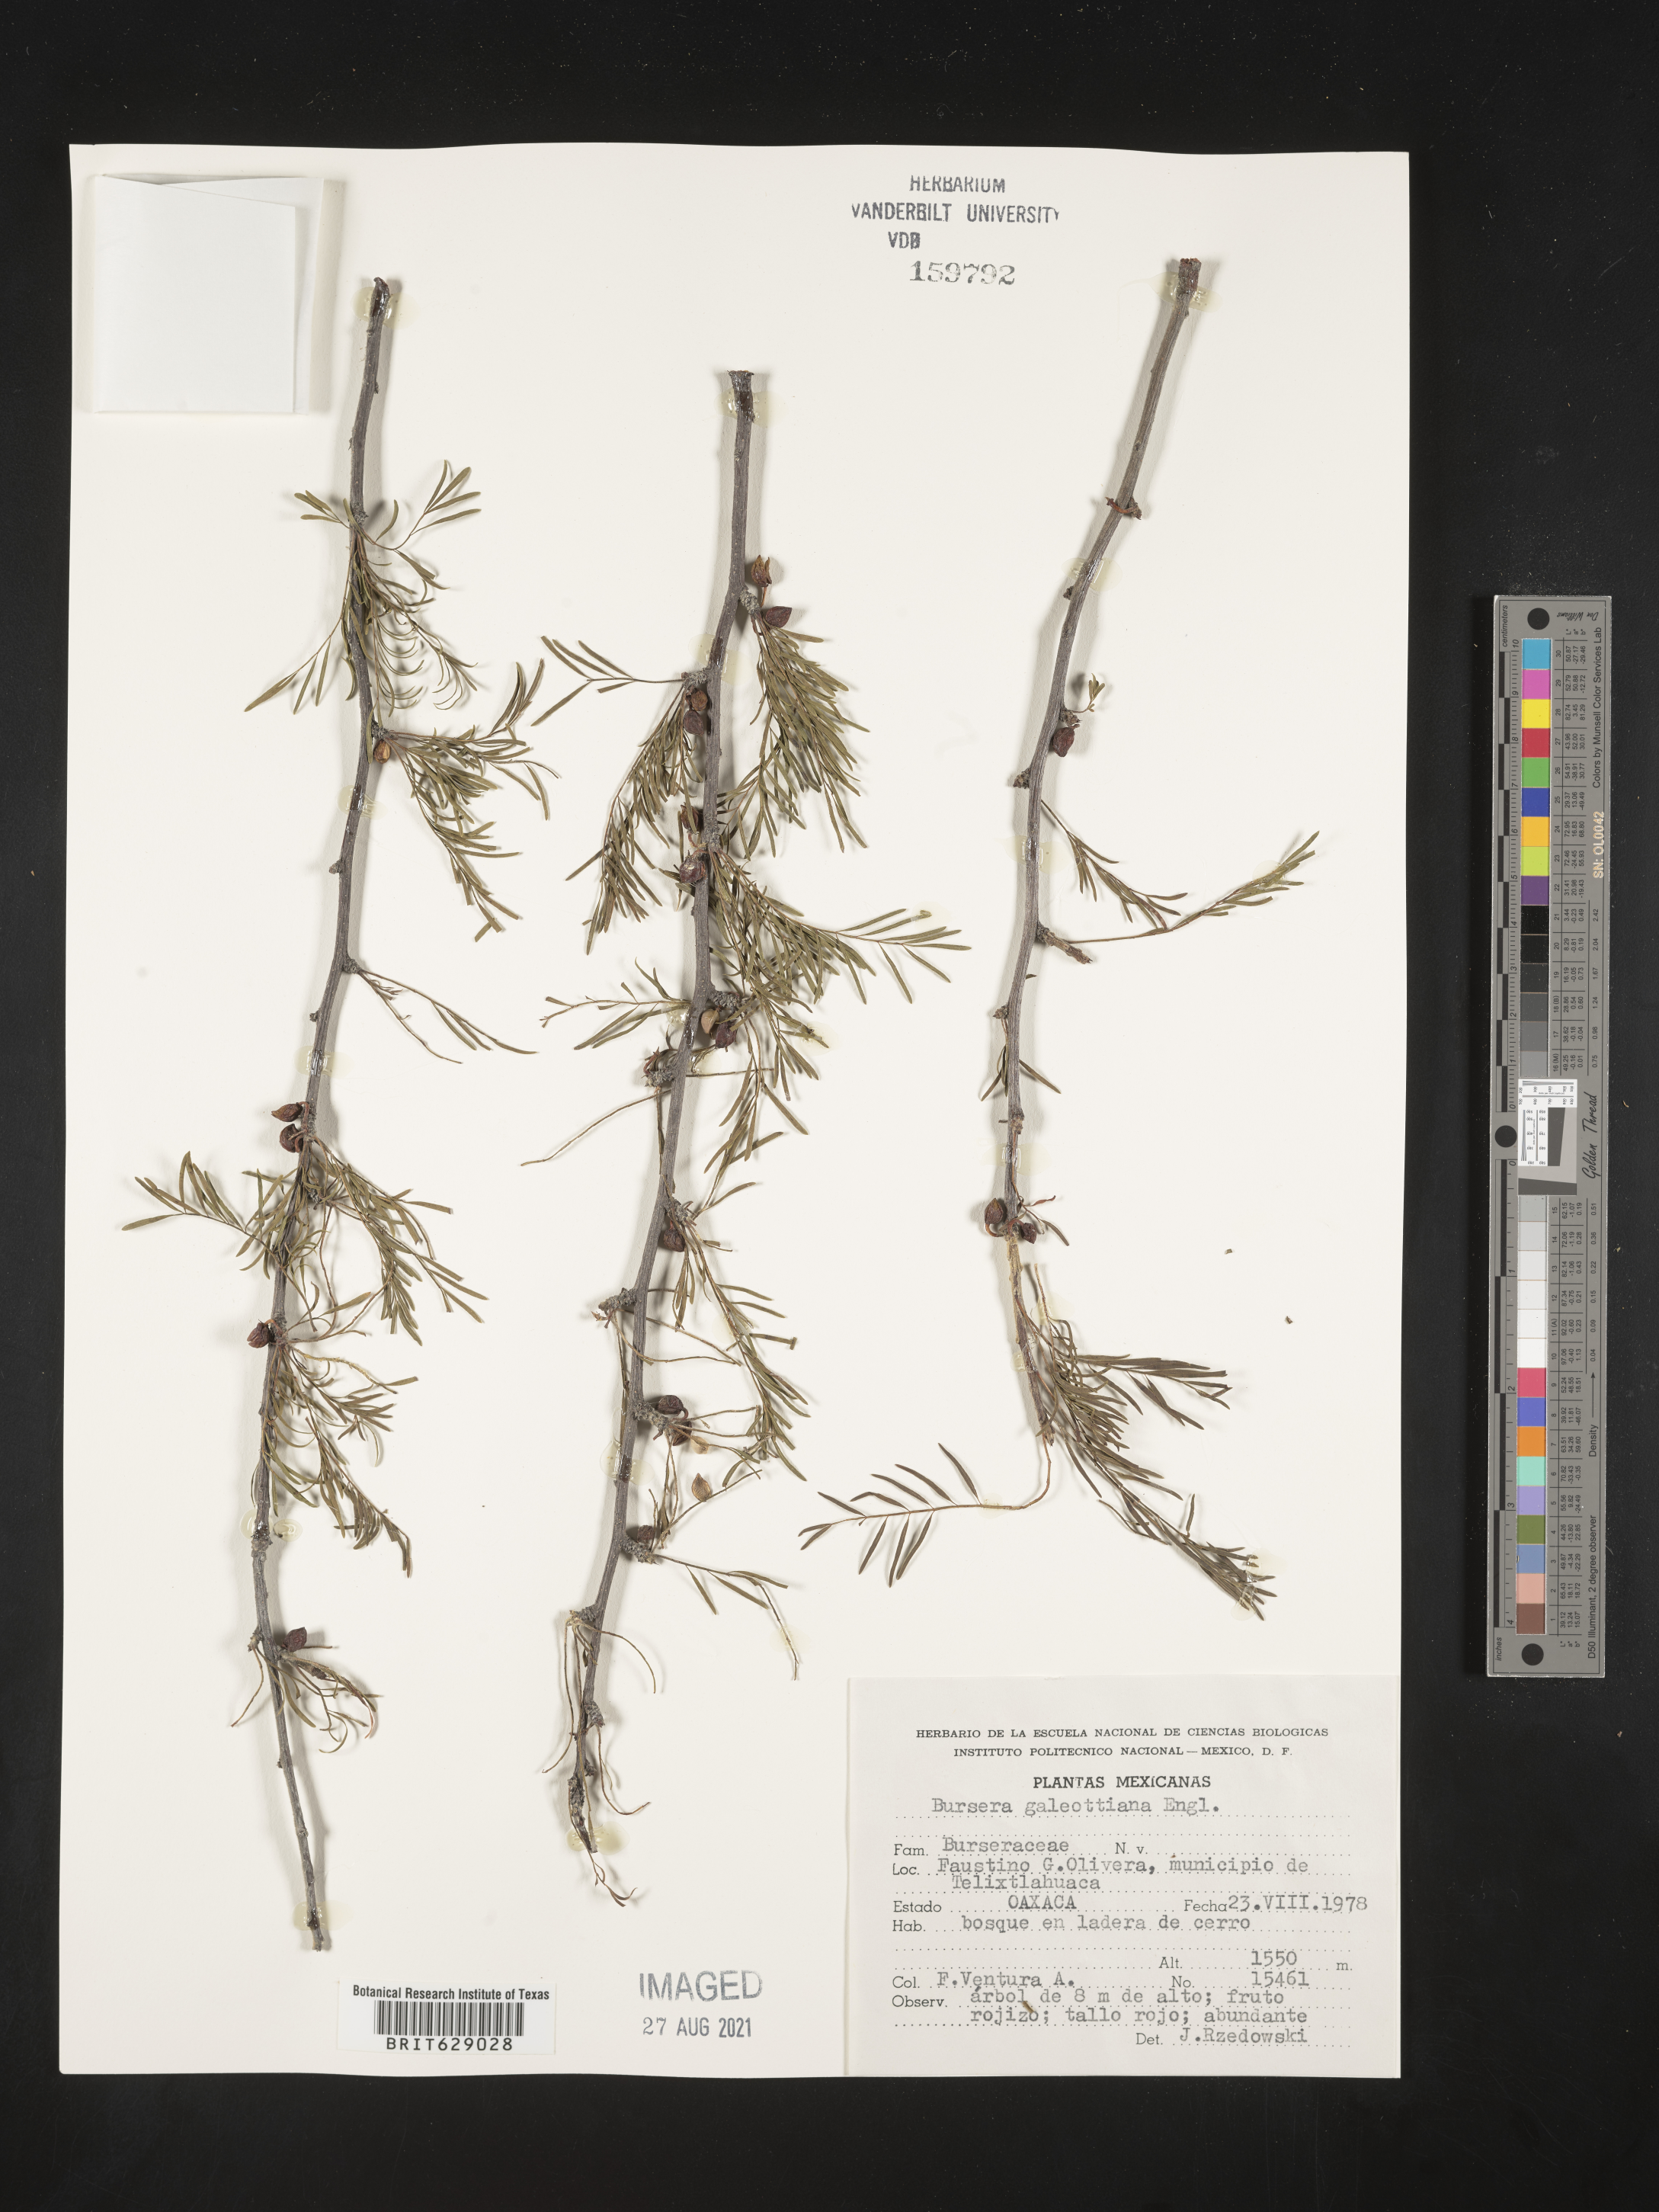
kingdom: Plantae
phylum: Tracheophyta
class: Magnoliopsida
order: Sapindales
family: Burseraceae
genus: Bursera
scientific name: Bursera
